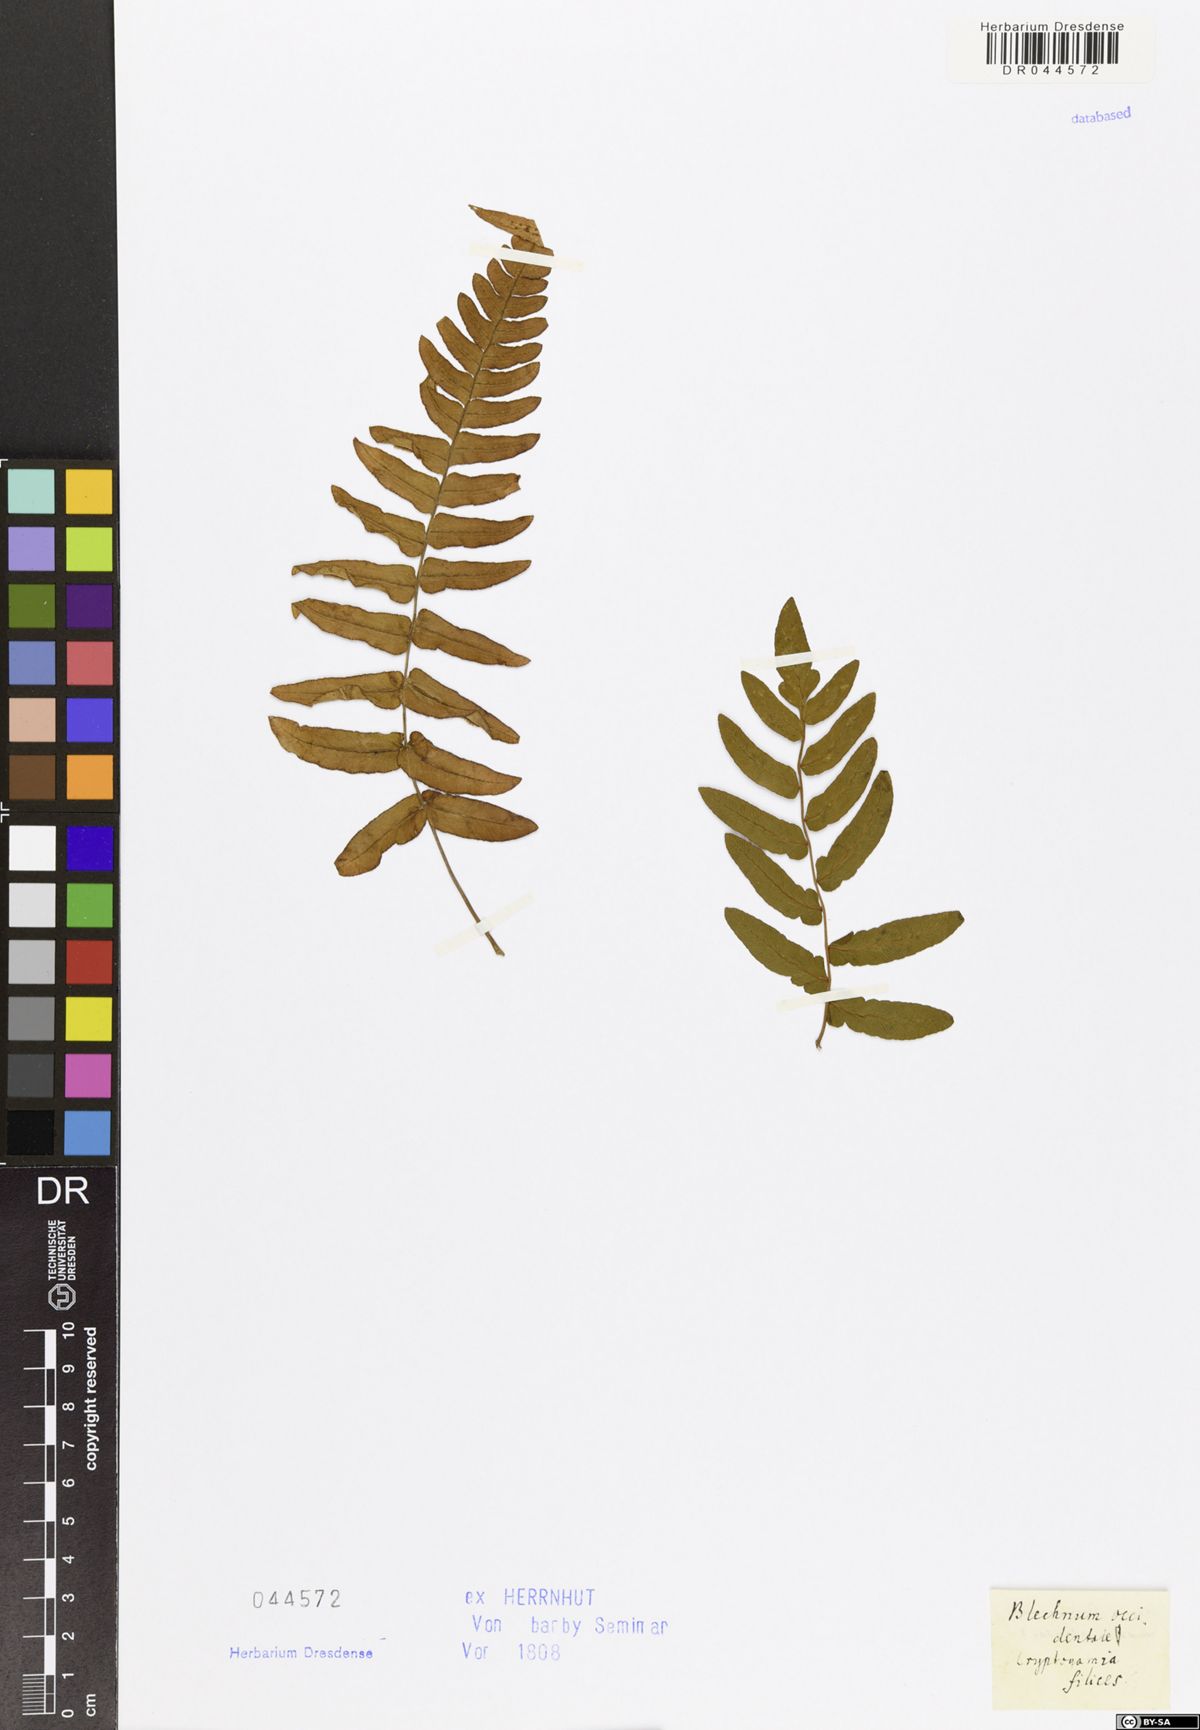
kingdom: Plantae
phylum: Tracheophyta
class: Polypodiopsida
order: Polypodiales
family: Blechnaceae
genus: Blechnum
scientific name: Blechnum occidentale
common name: Hammock fern
